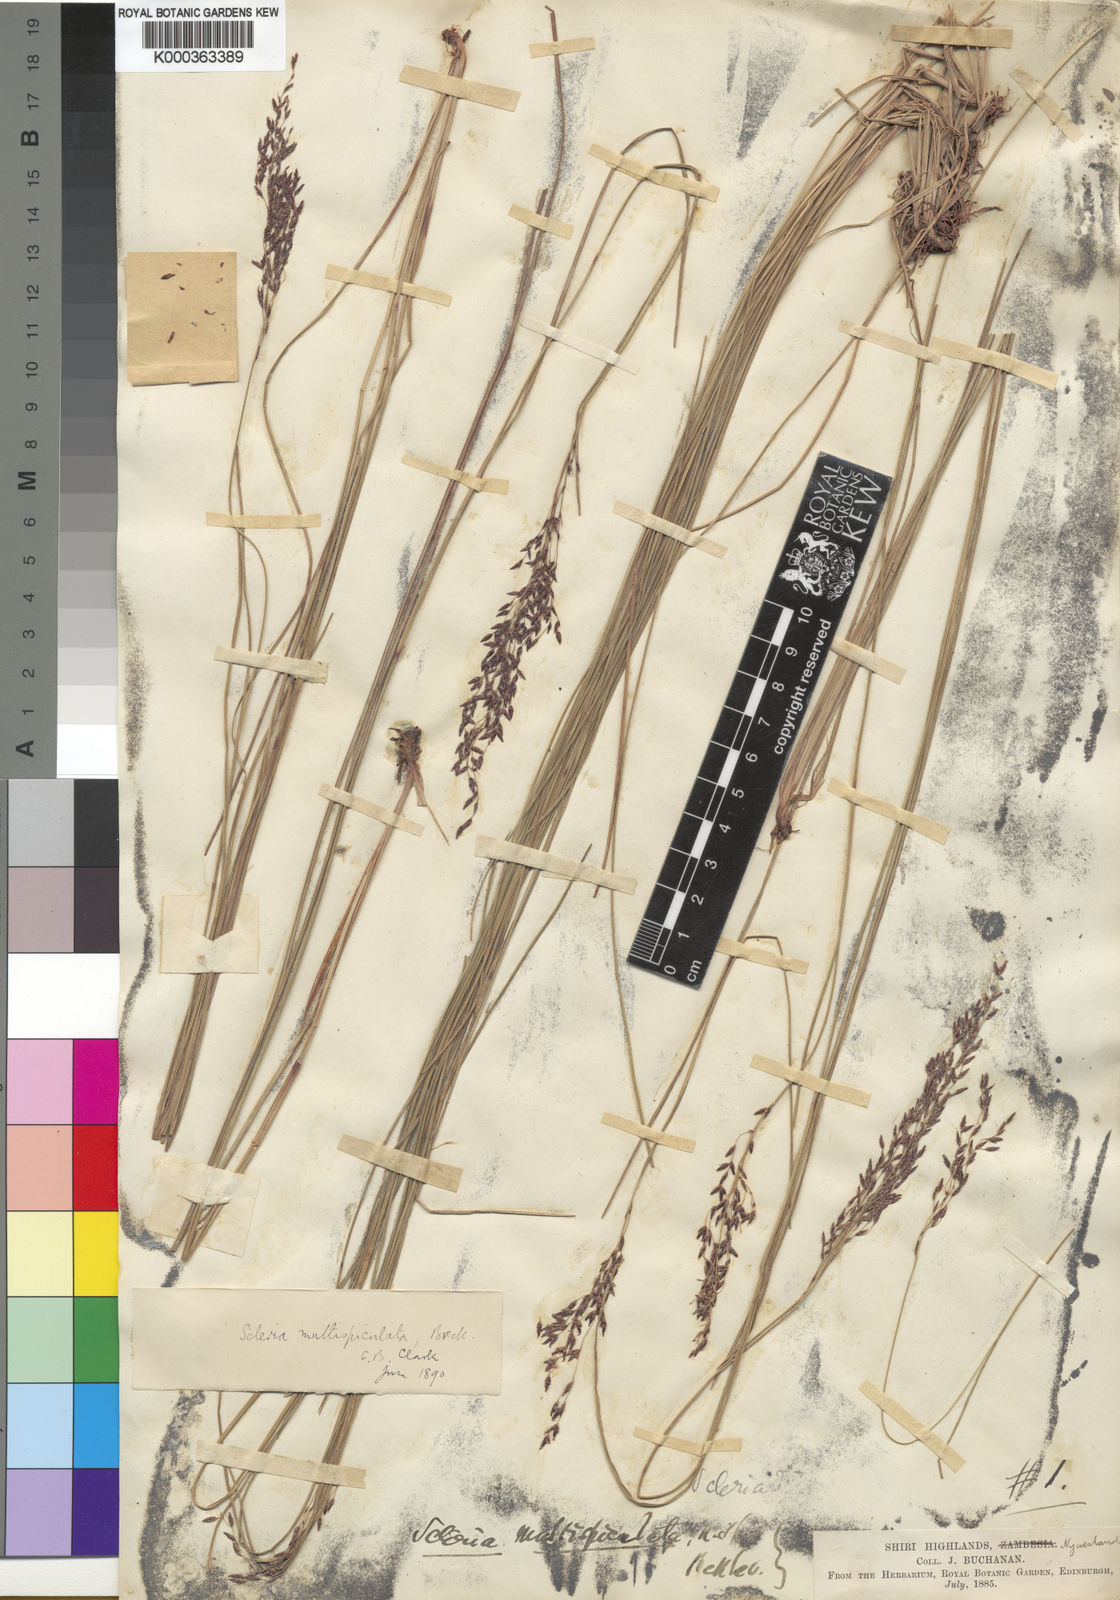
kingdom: Plantae
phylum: Tracheophyta
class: Liliopsida
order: Poales
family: Cyperaceae
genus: Scleria
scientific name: Scleria pooides
